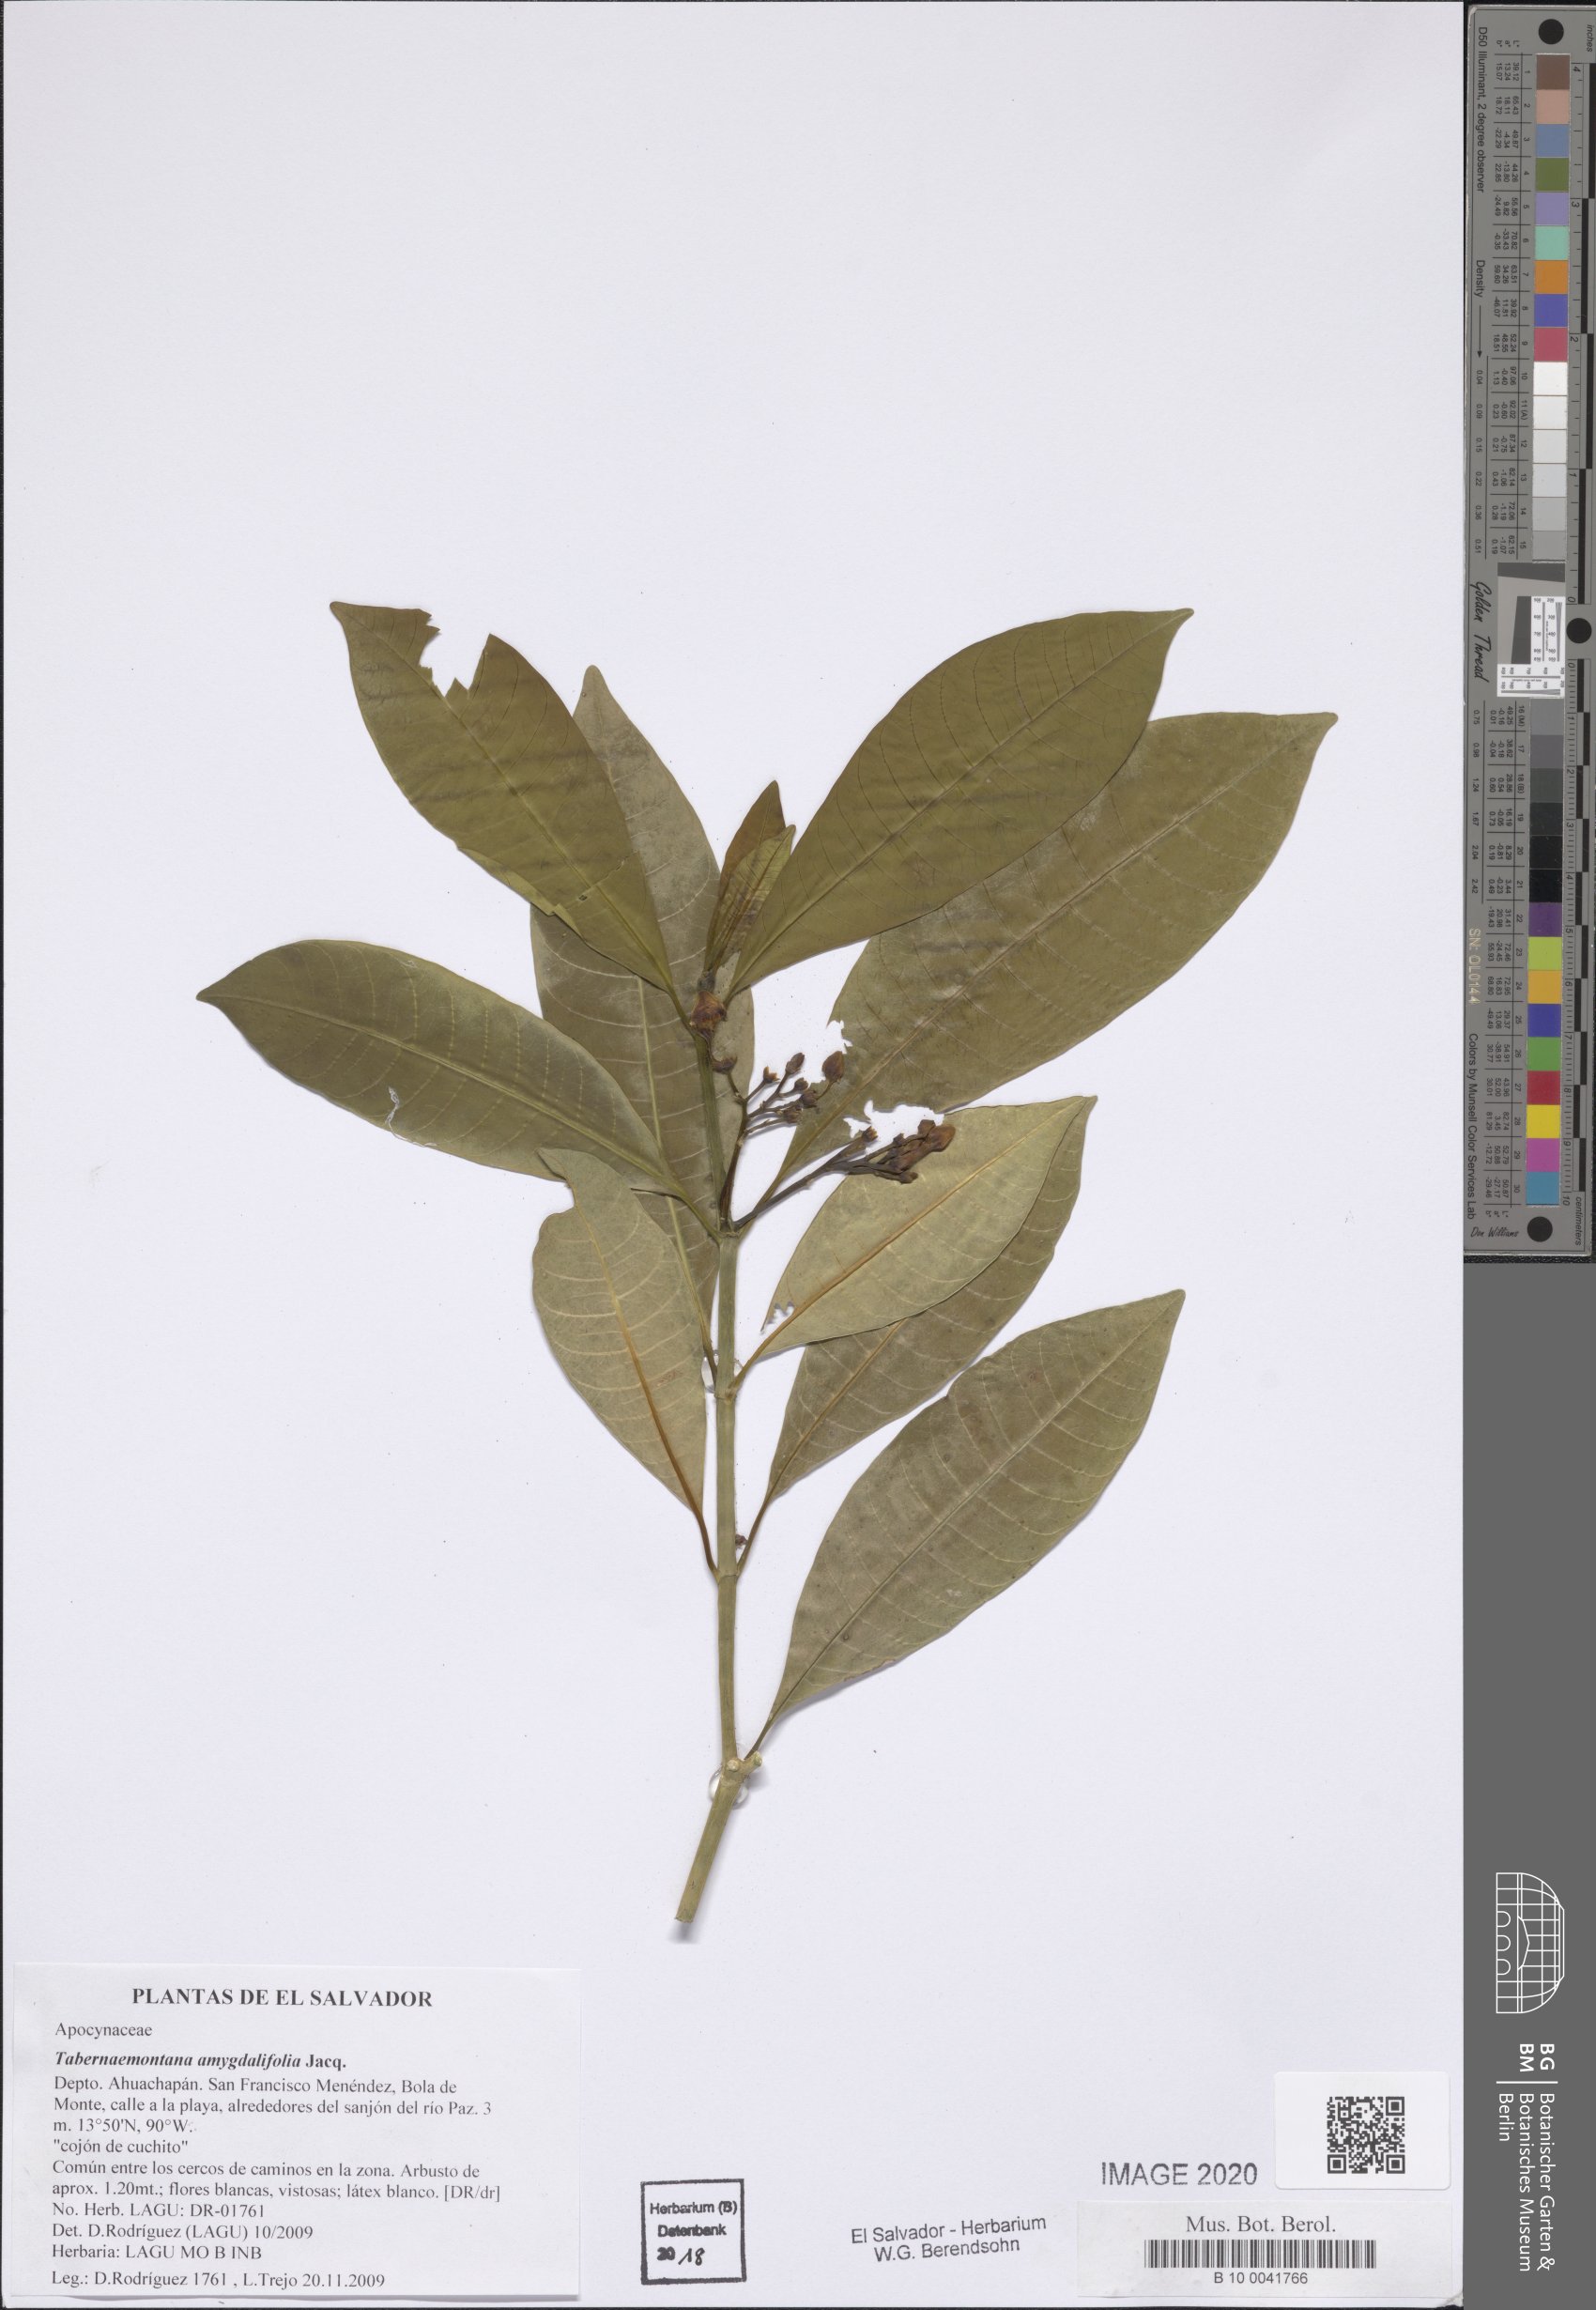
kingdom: Plantae
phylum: Tracheophyta
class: Magnoliopsida
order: Gentianales
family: Apocynaceae
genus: Tabernaemontana
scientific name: Tabernaemontana amygdalifolia
